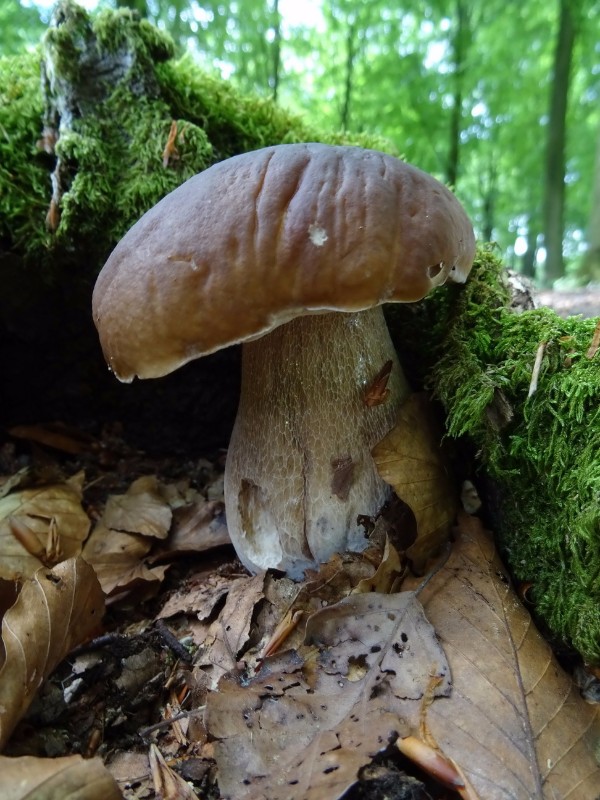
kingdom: Fungi
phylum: Basidiomycota
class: Agaricomycetes
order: Boletales
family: Boletaceae
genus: Boletus
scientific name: Boletus edulis
